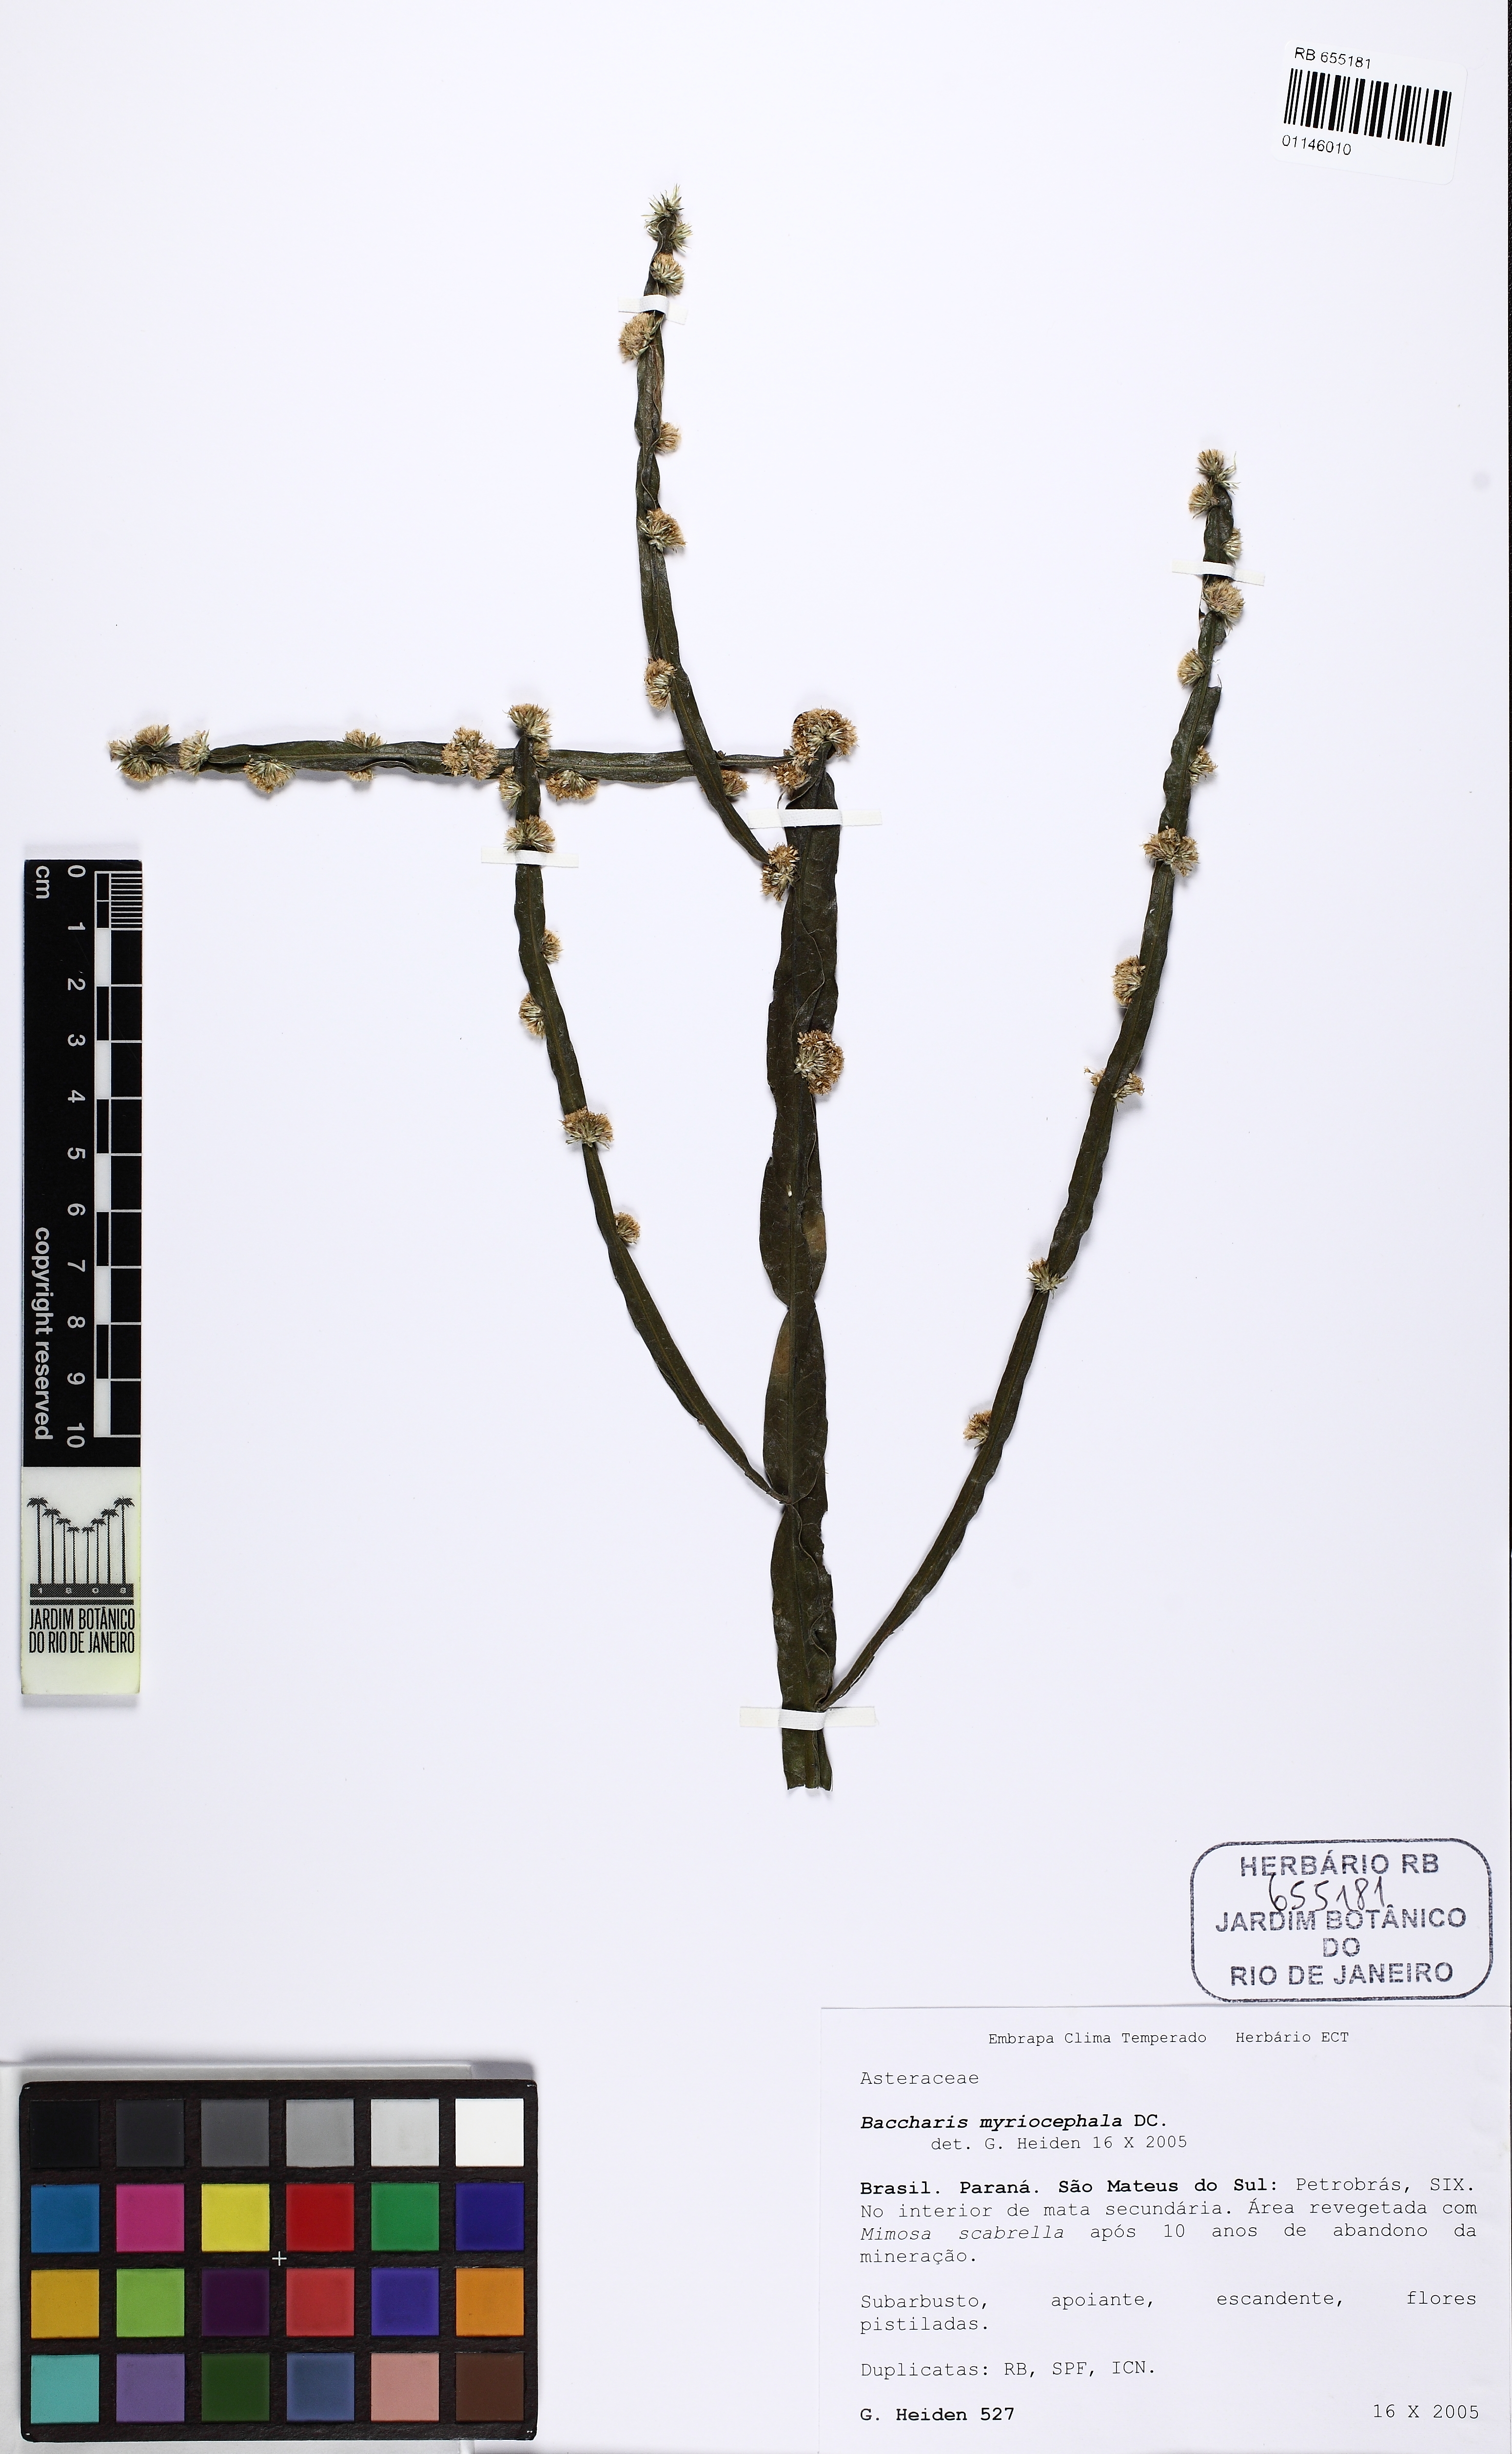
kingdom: Plantae
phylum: Tracheophyta
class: Magnoliopsida
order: Asterales
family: Asteraceae
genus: Baccharis
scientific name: Baccharis myriocephala
